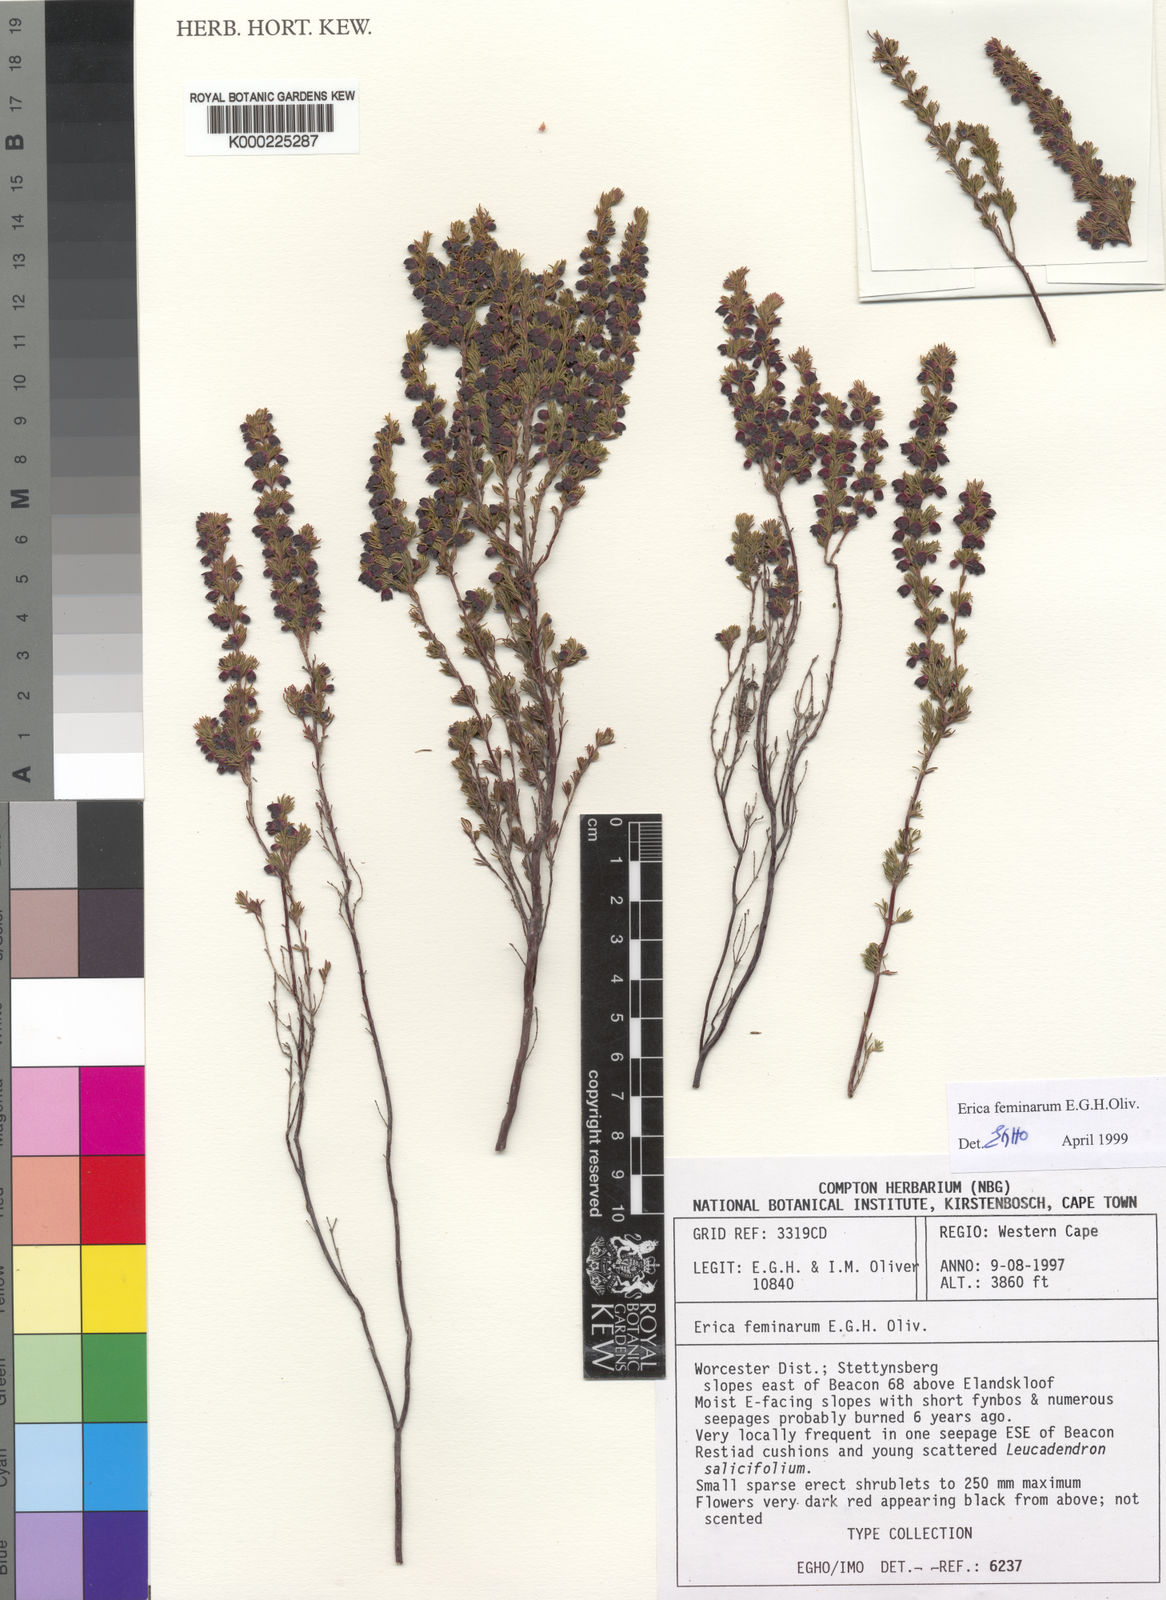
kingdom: Plantae
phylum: Tracheophyta
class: Magnoliopsida
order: Ericales
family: Ericaceae
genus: Erica
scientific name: Erica feminarum
